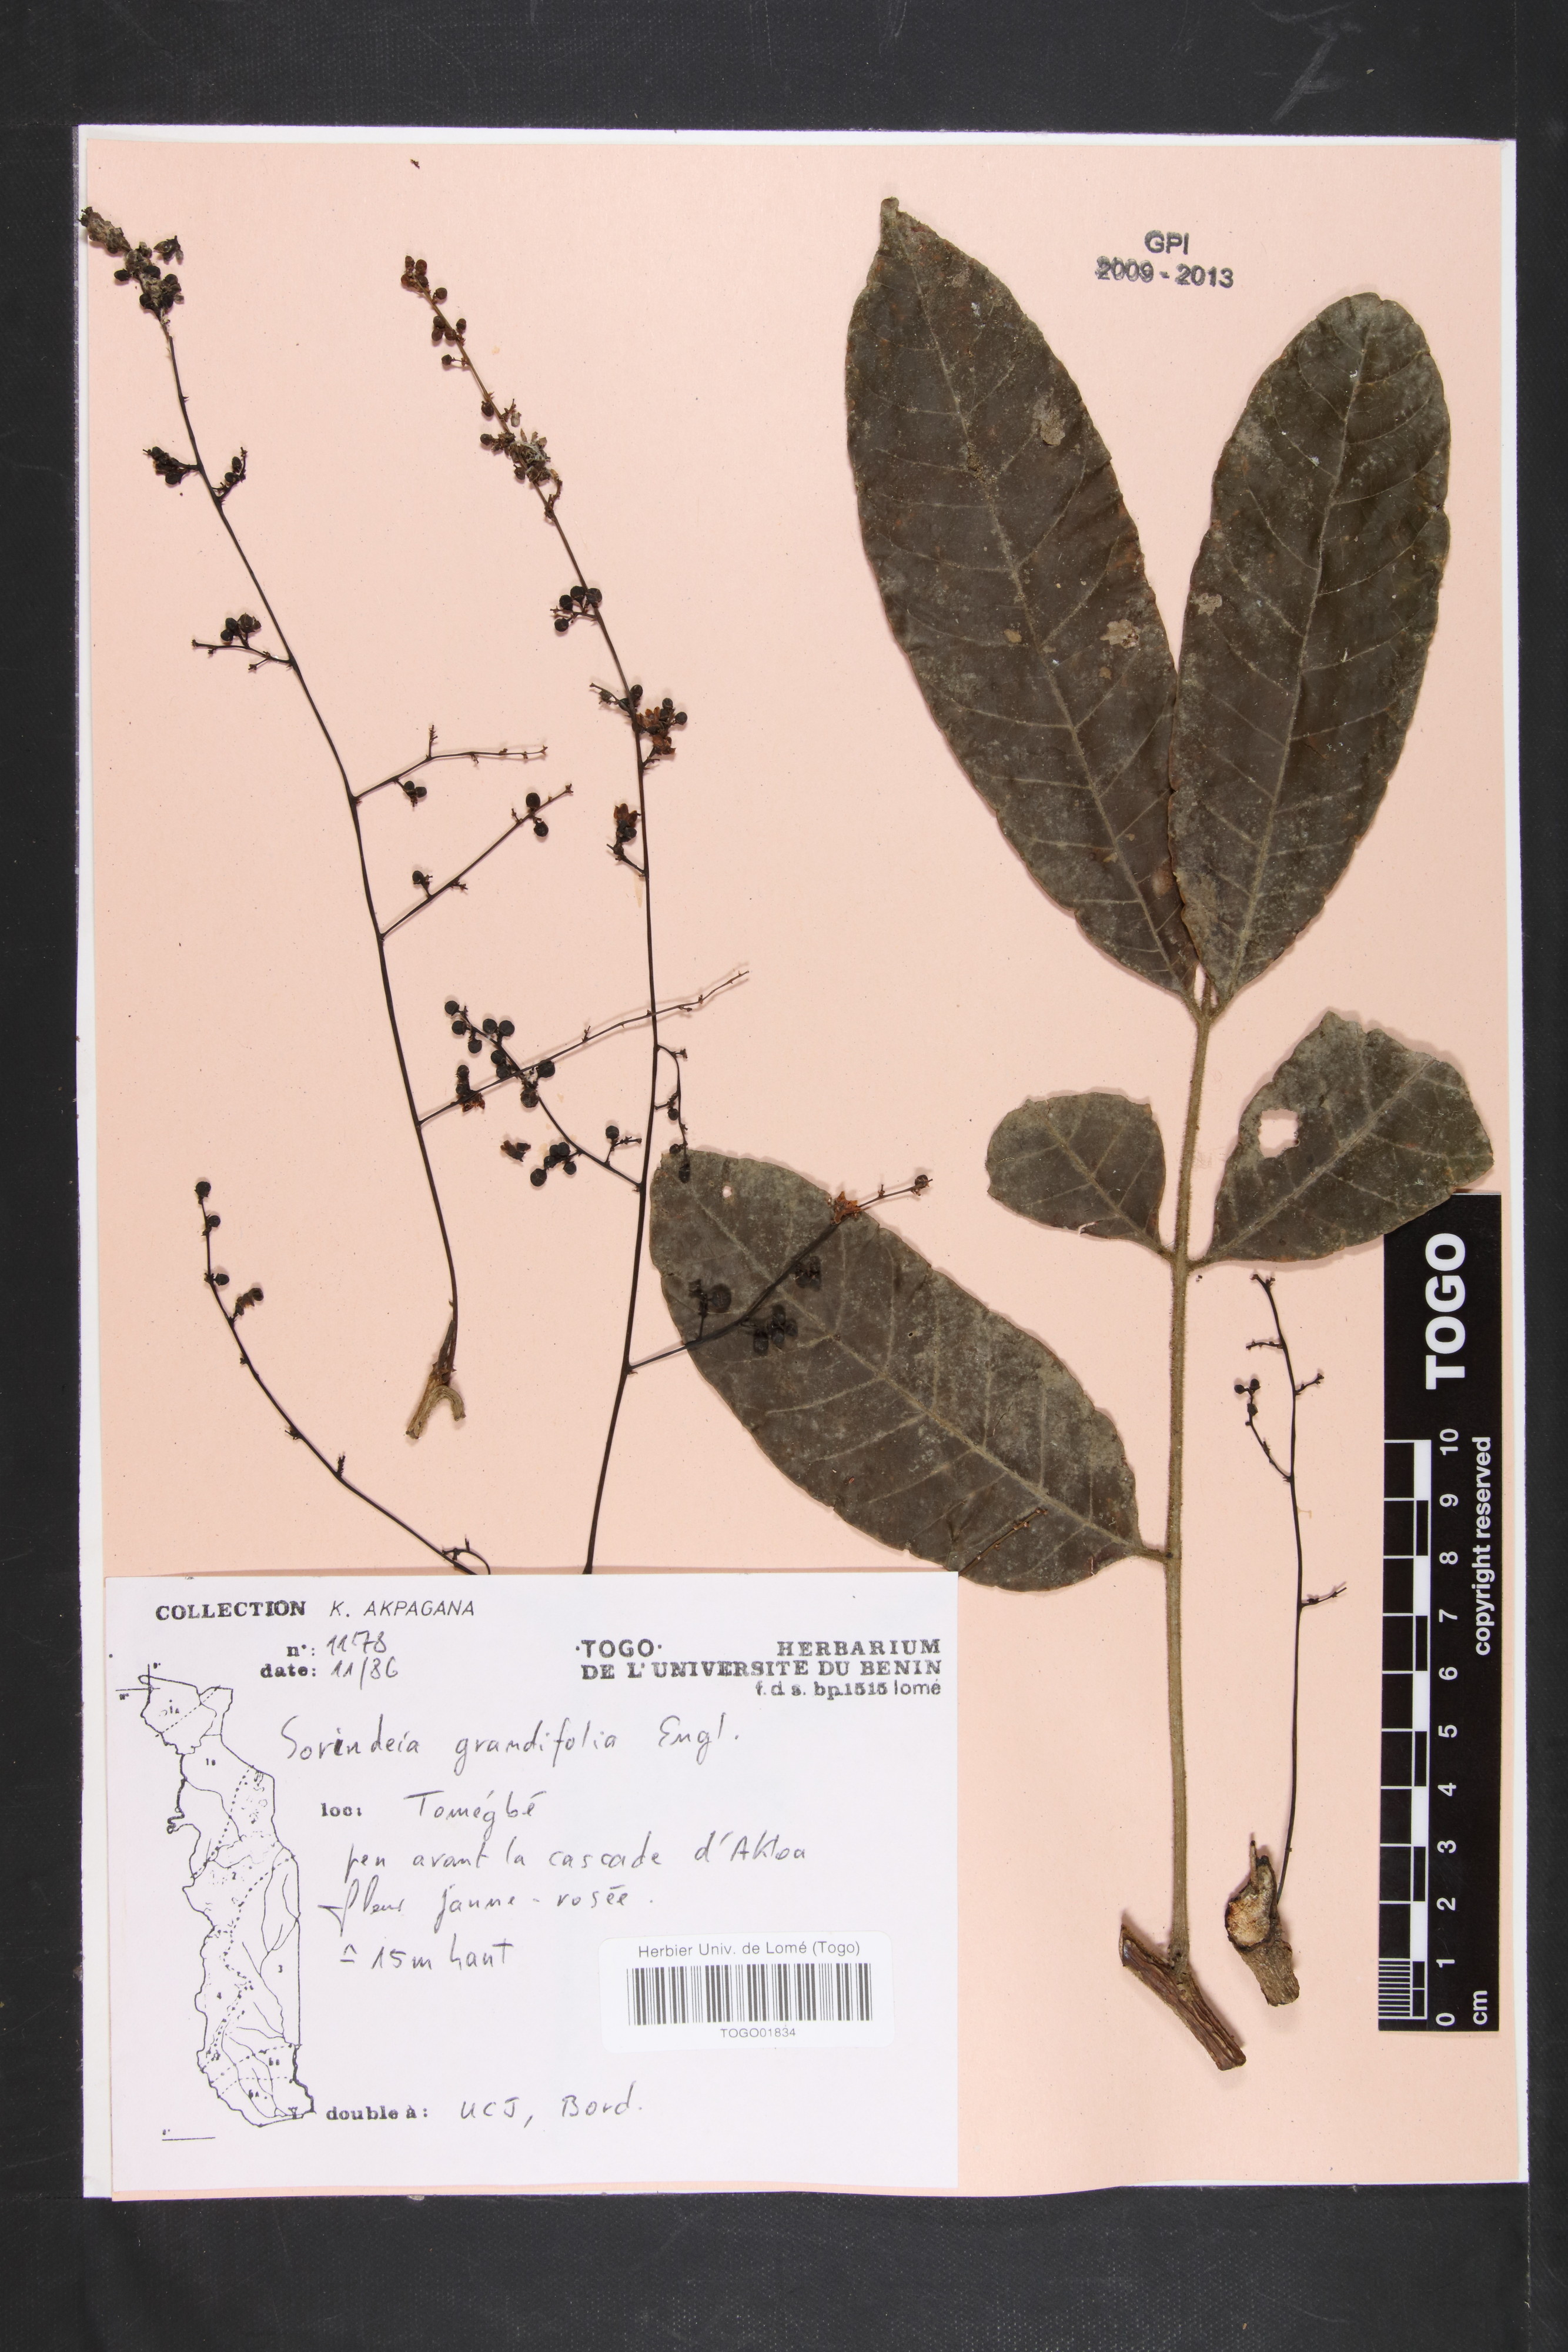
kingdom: Plantae
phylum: Tracheophyta
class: Magnoliopsida
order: Sapindales
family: Anacardiaceae
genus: Sorindeia
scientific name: Sorindeia grandifolia
